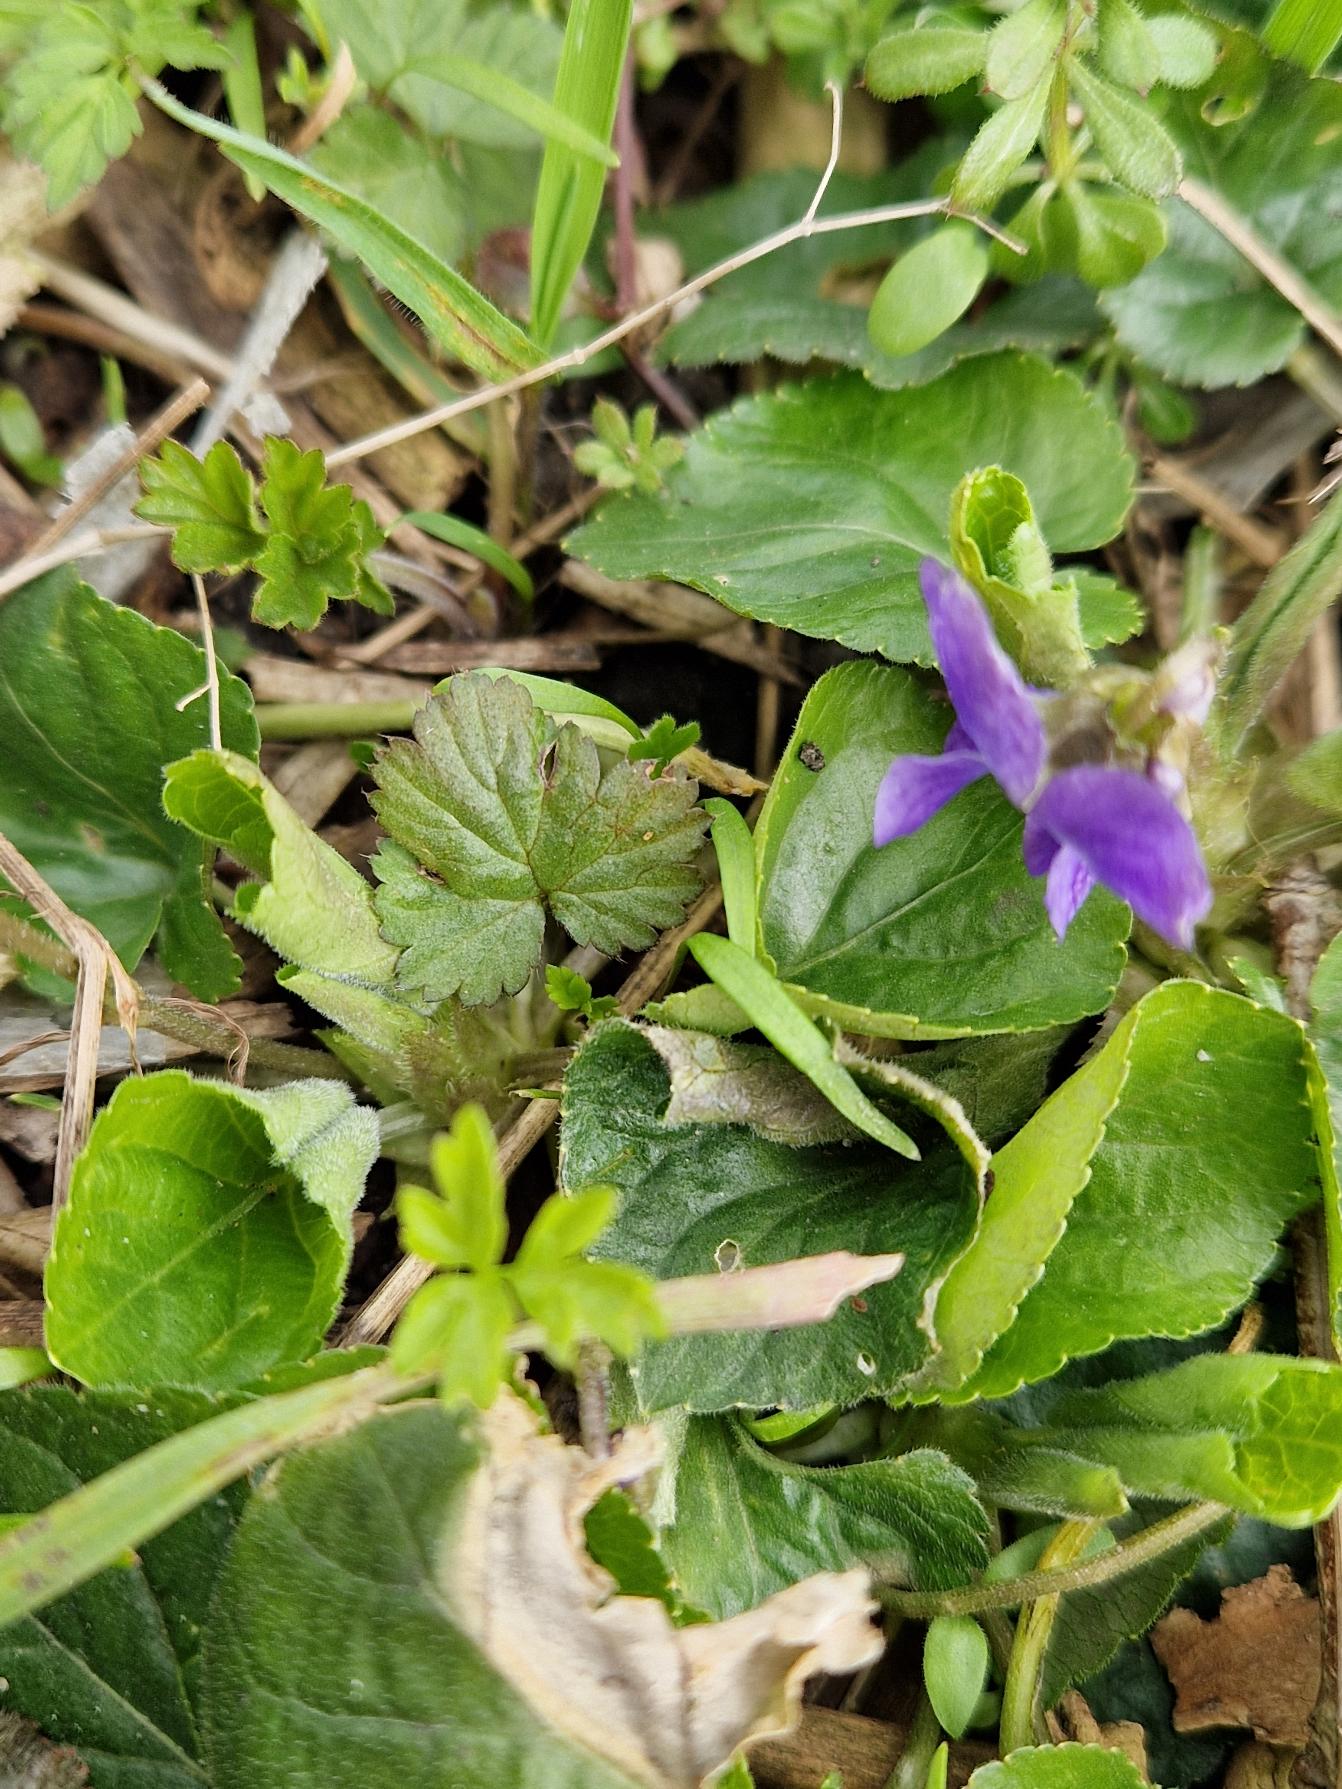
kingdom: Plantae
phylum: Tracheophyta
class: Magnoliopsida
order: Malpighiales
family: Violaceae
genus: Viola
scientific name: Viola odorata
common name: Marts-viol
